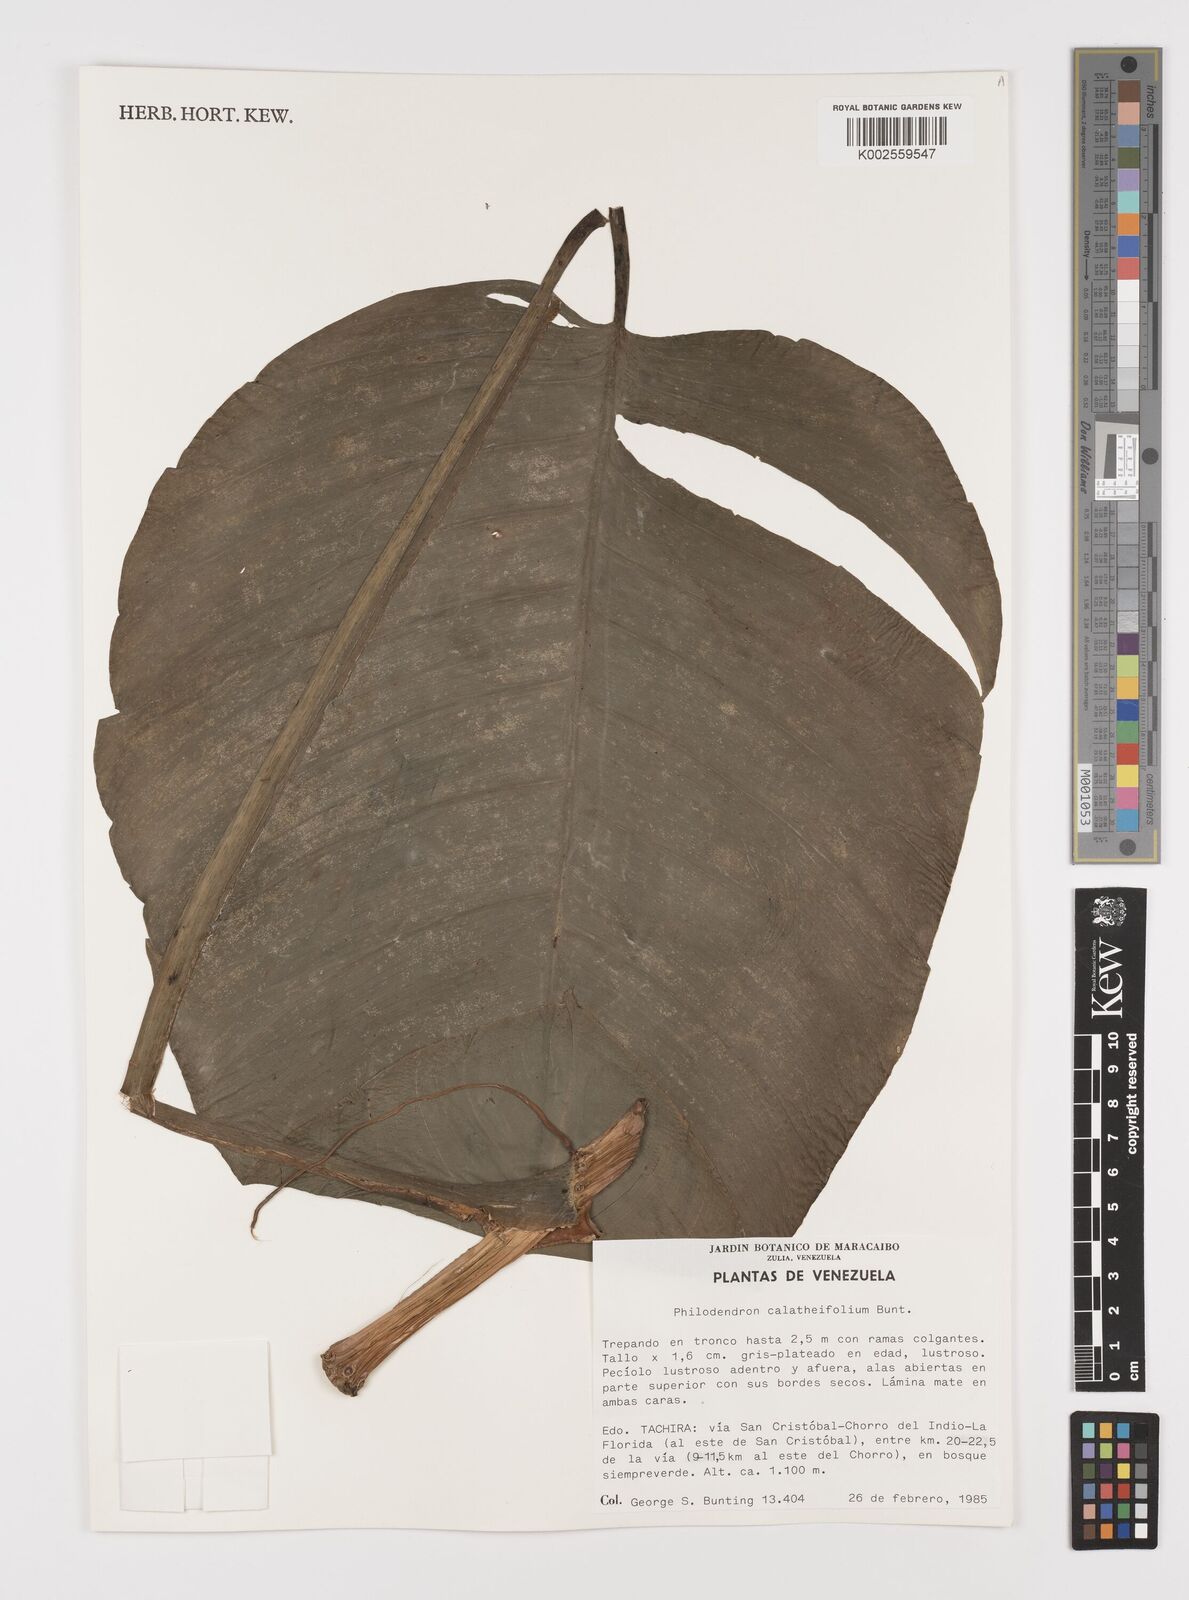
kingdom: Plantae
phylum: Tracheophyta
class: Liliopsida
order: Alismatales
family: Araceae
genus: Philodendron
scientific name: Philodendron calatheifolium
